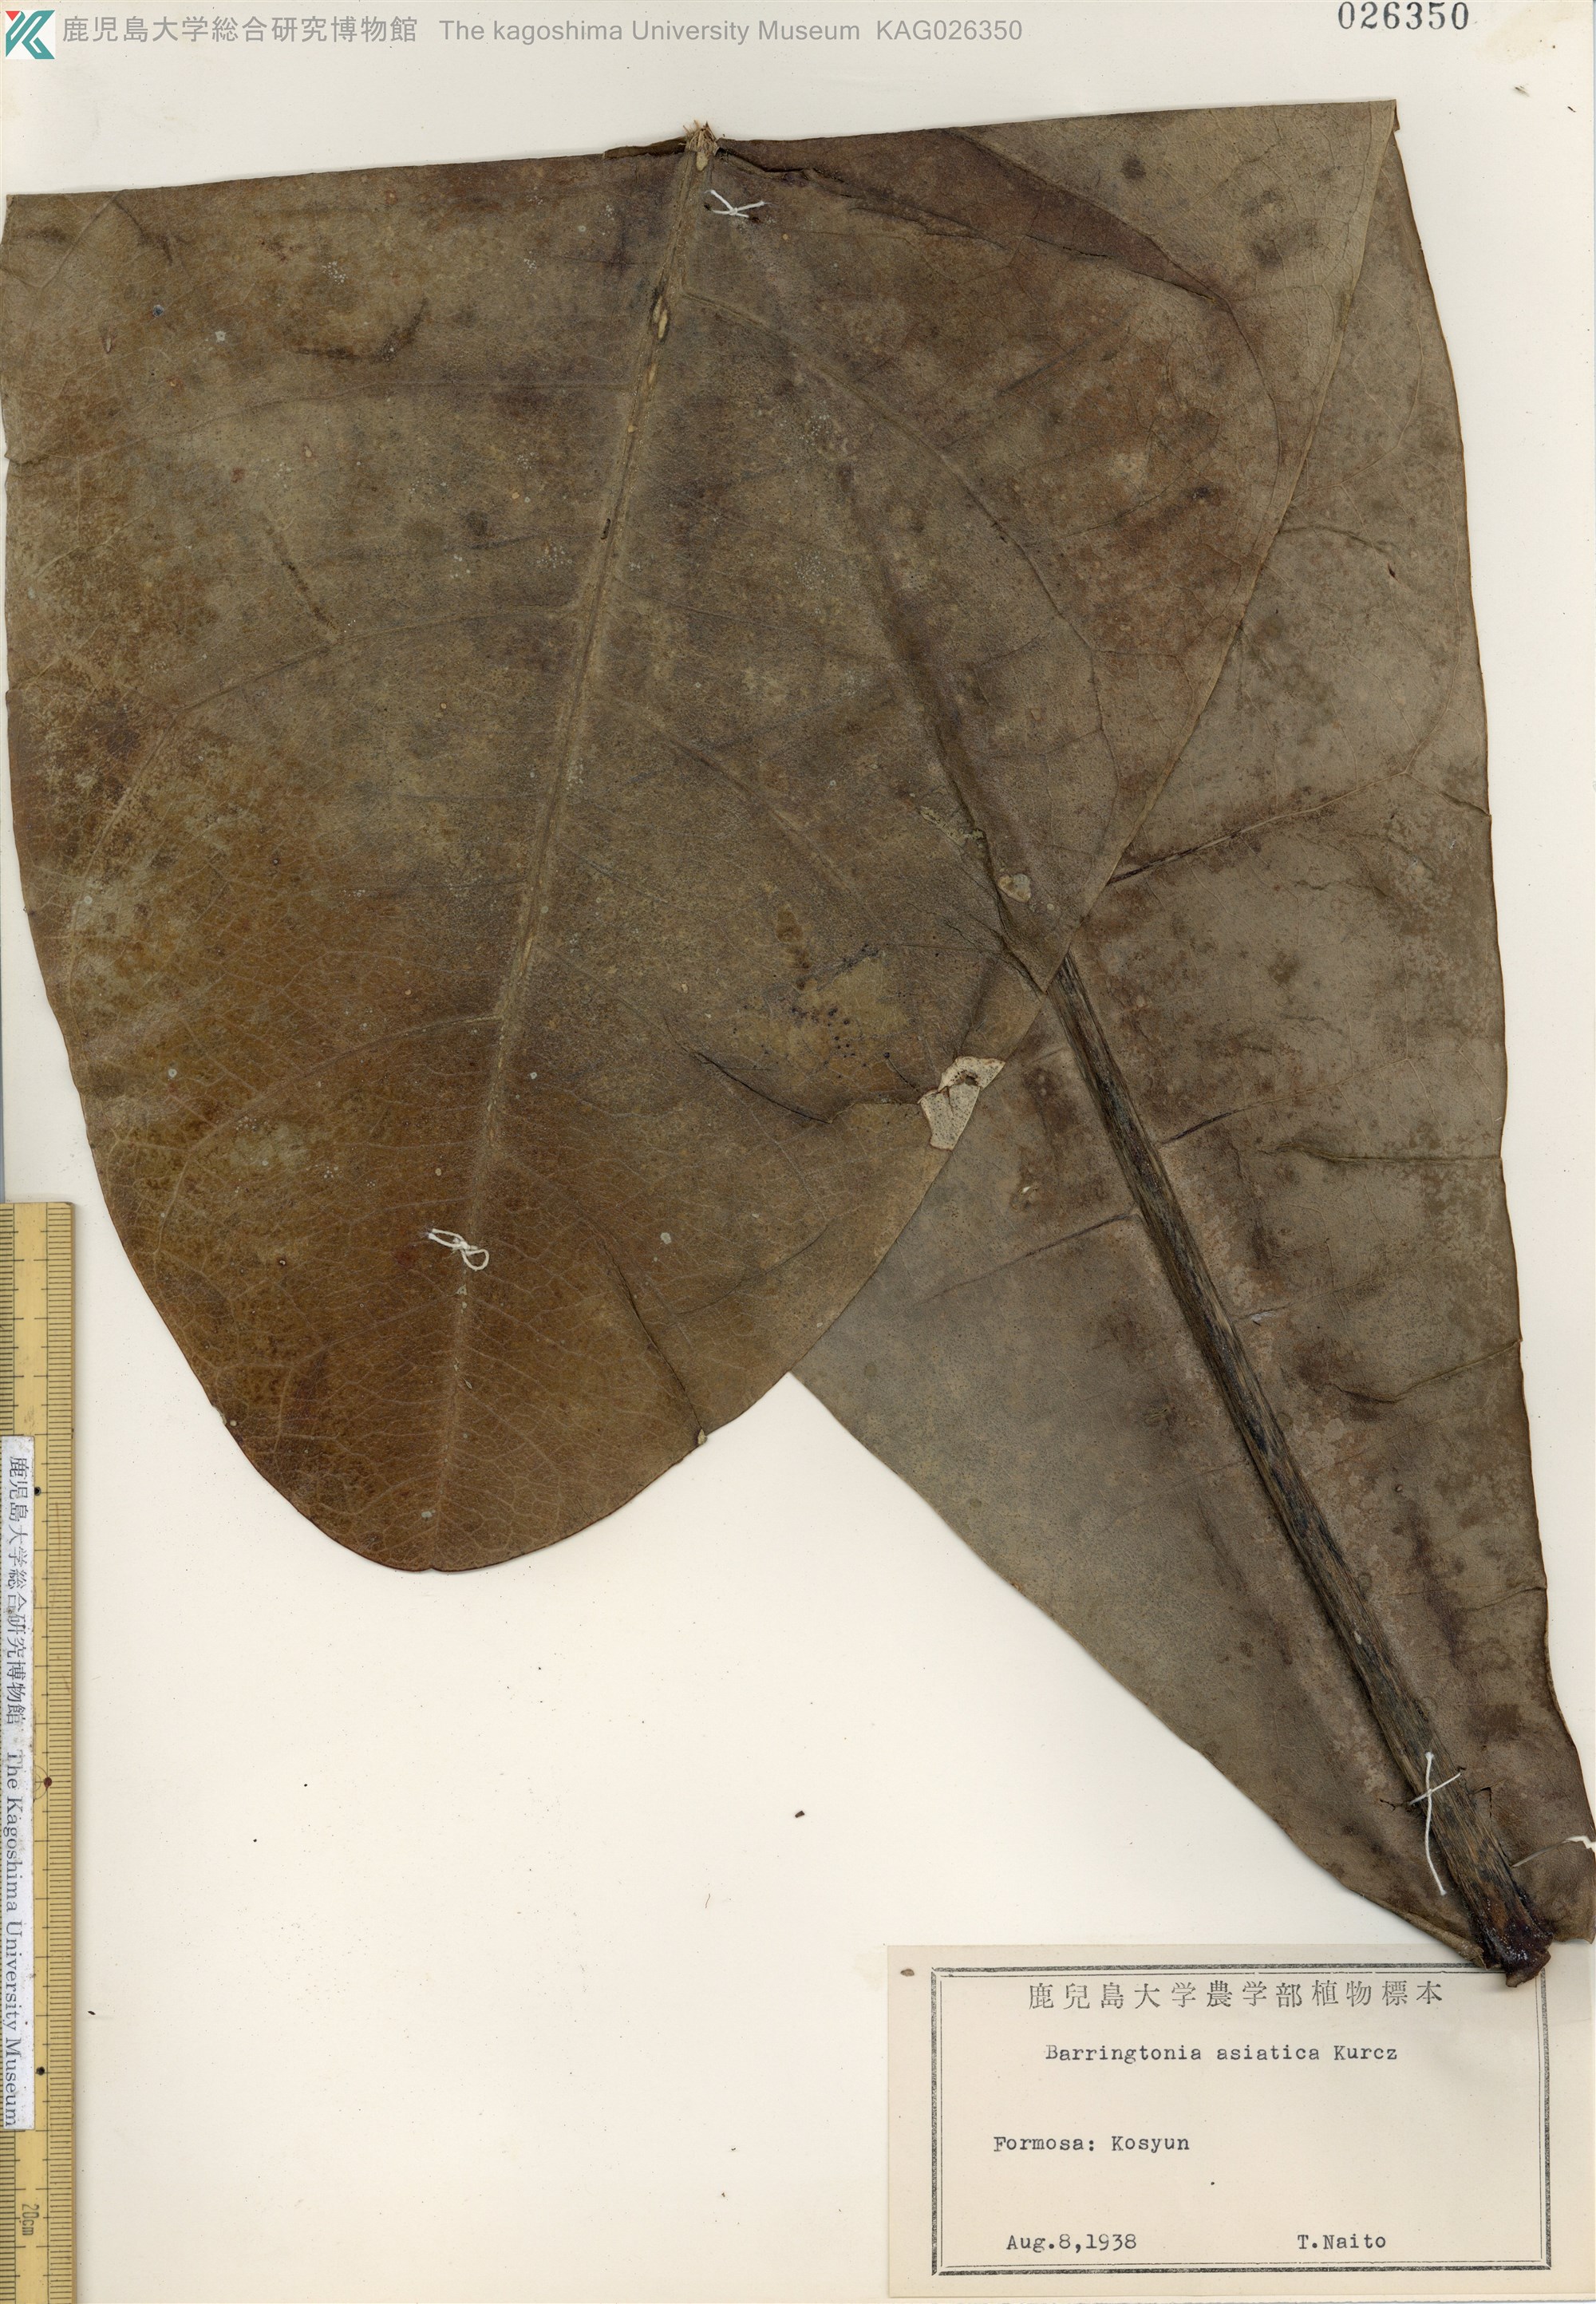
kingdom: Plantae
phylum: Tracheophyta
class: Magnoliopsida
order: Ericales
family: Lecythidaceae
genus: Barringtonia
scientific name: Barringtonia asiatica
